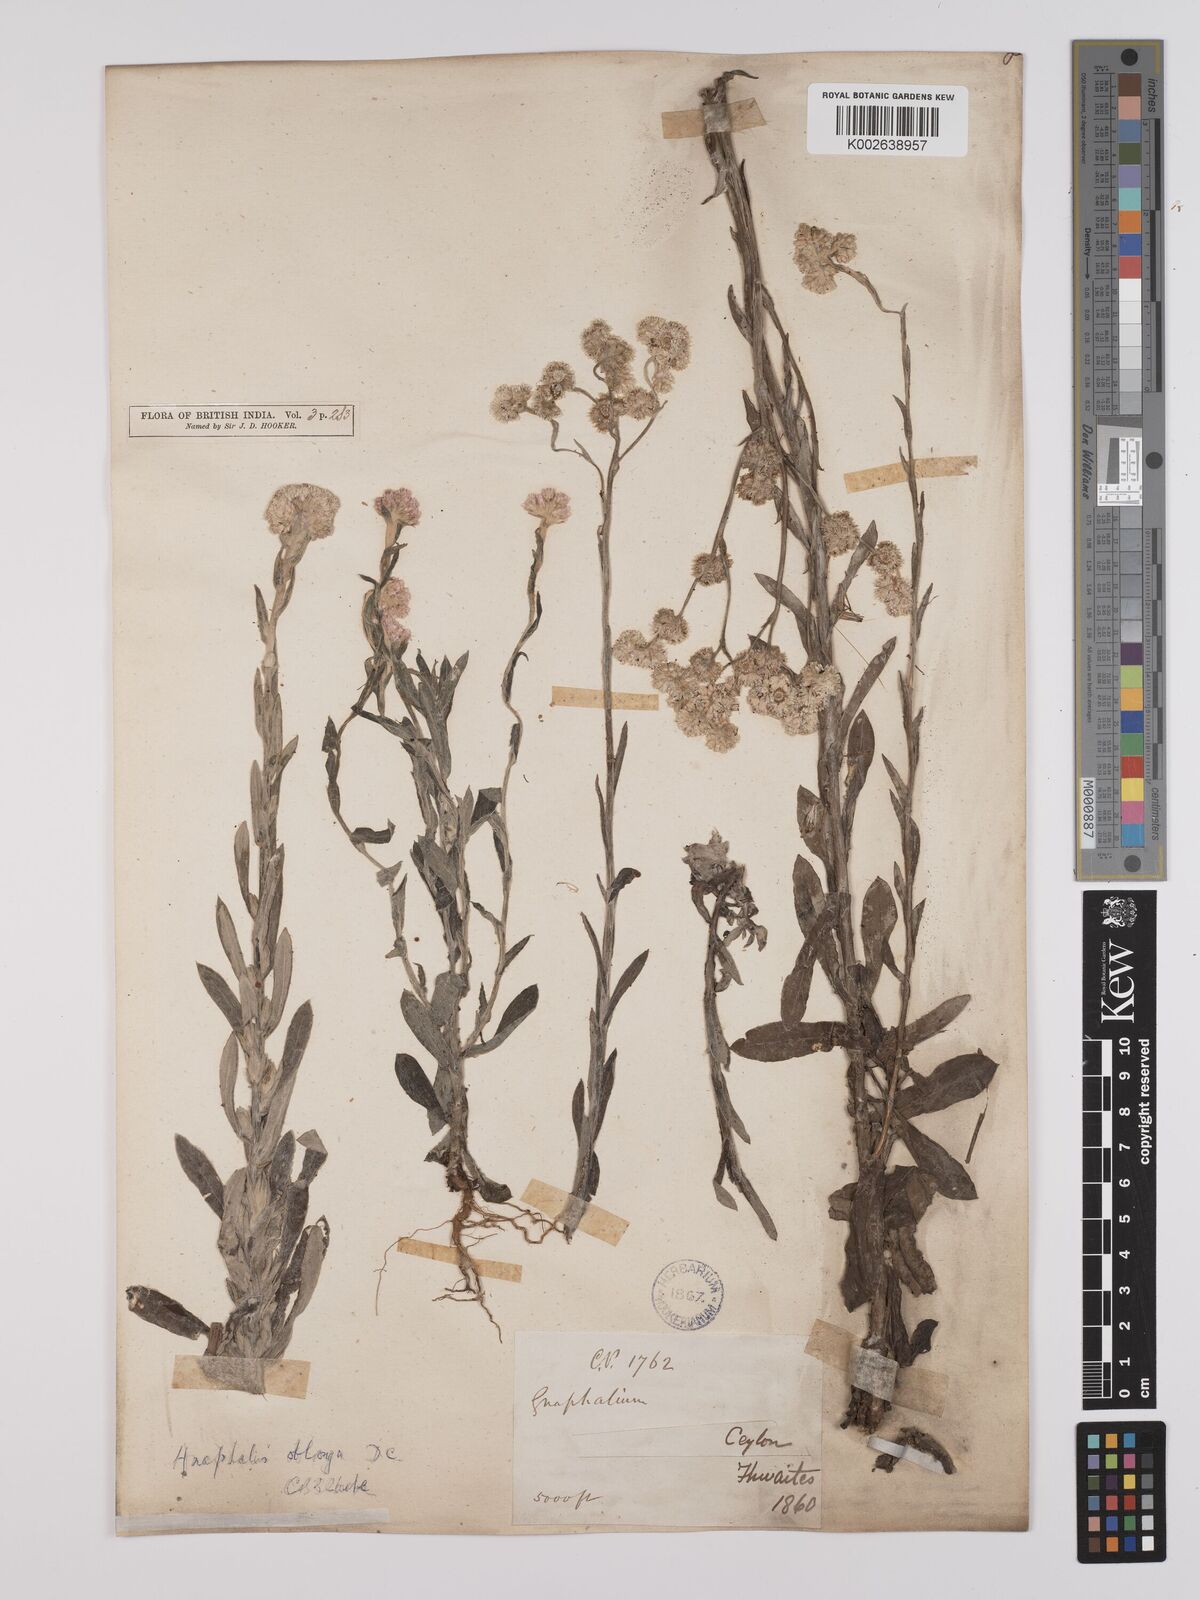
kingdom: Plantae
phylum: Tracheophyta
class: Magnoliopsida
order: Asterales
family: Asteraceae
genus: Anaphalis
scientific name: Anaphalis subdecurrens
